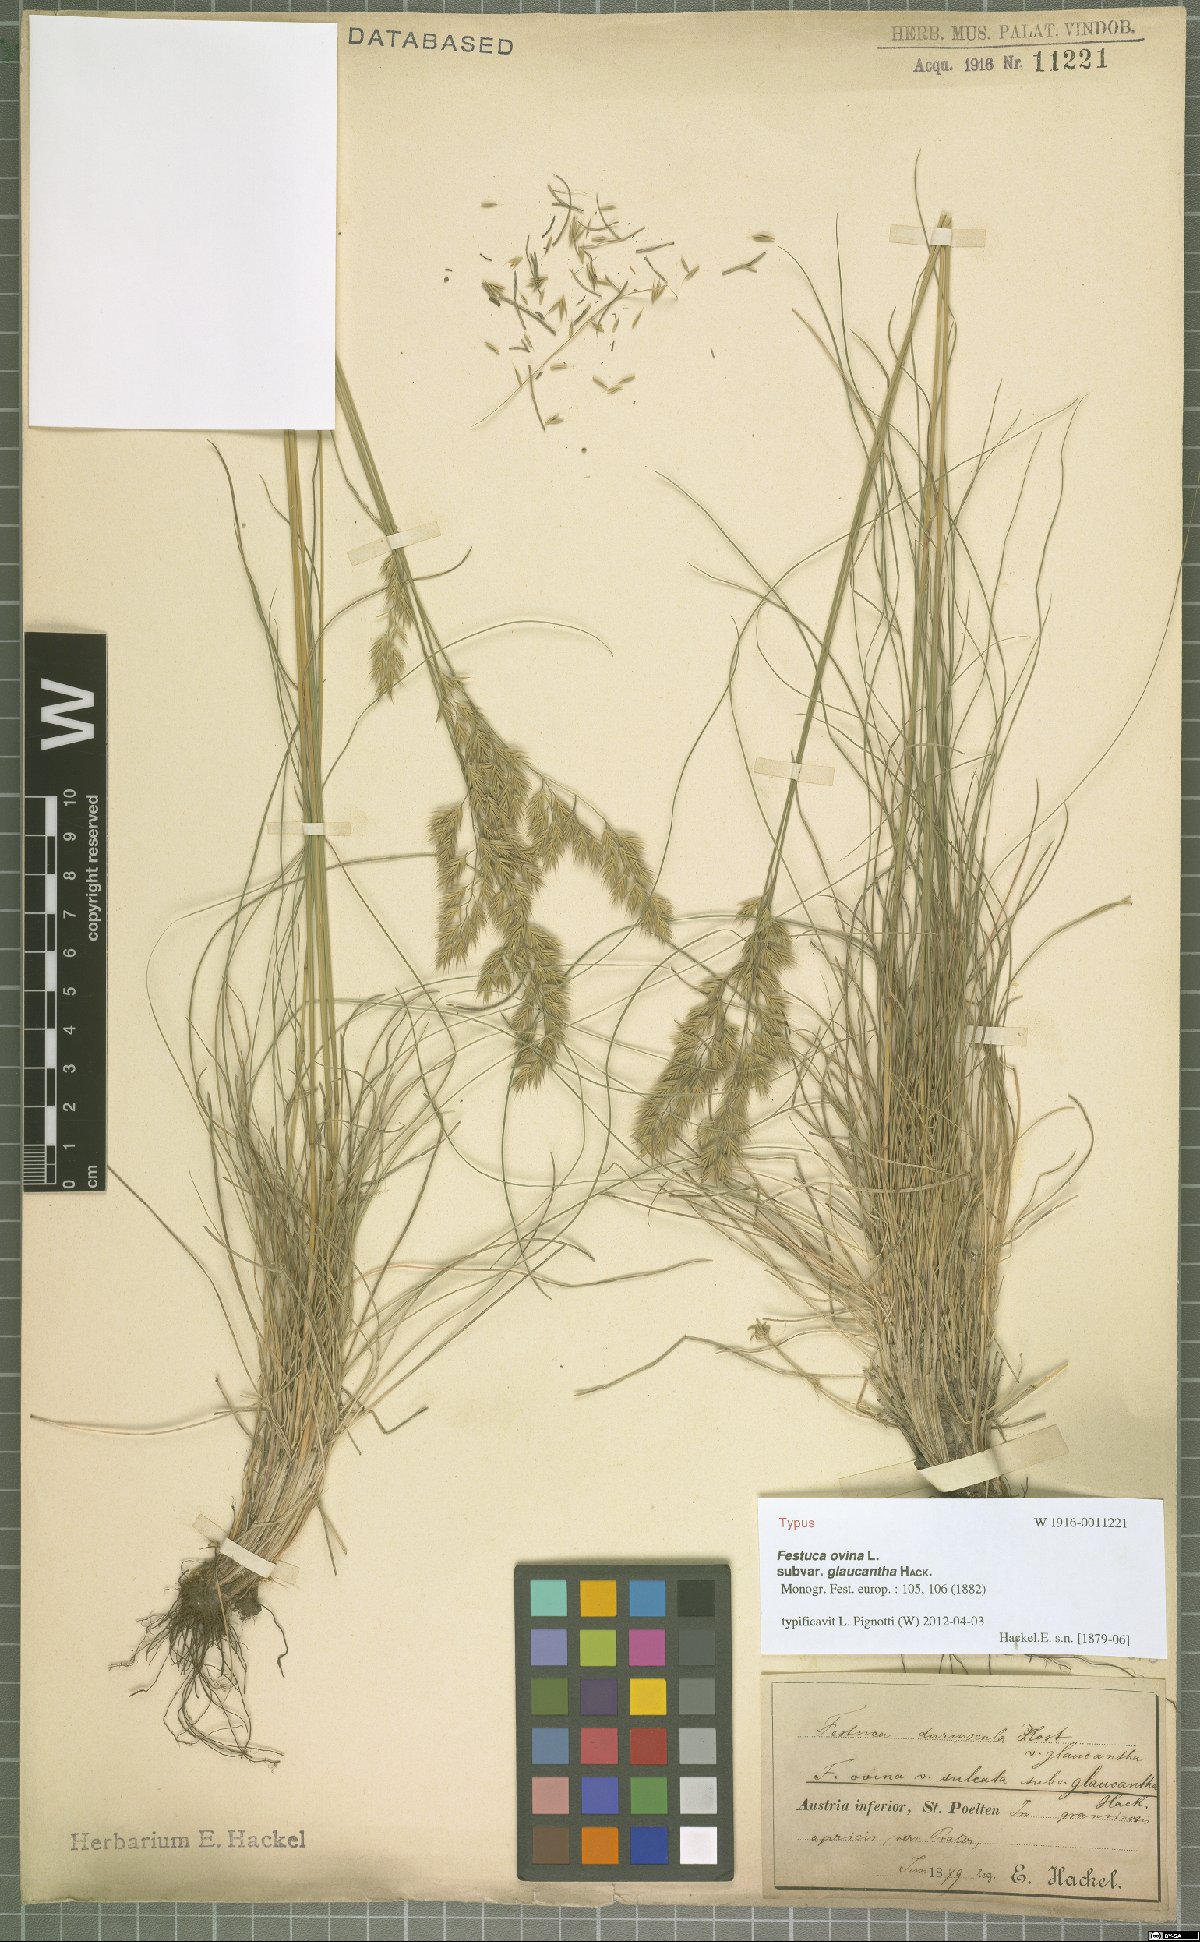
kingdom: Plantae
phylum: Tracheophyta
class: Liliopsida
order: Poales
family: Poaceae
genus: Festuca
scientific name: Festuca ovina
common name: Sheep fescue
